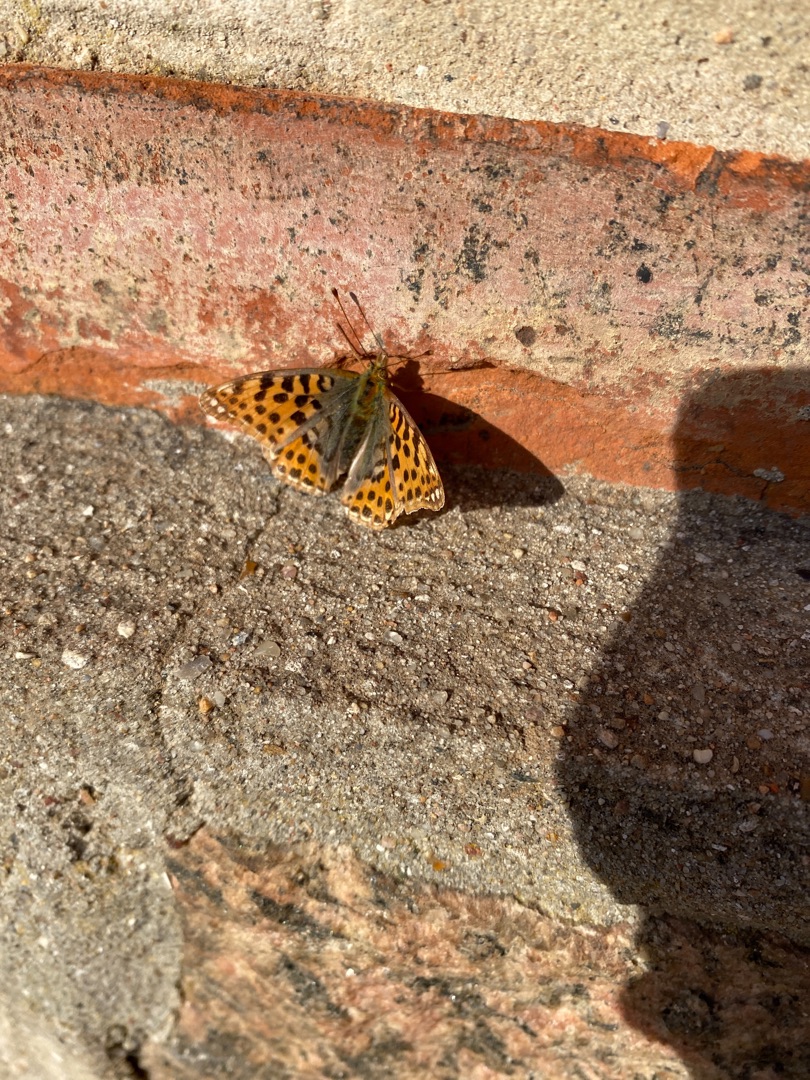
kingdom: Animalia
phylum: Arthropoda
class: Insecta
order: Lepidoptera
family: Nymphalidae
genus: Issoria
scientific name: Issoria lathonia
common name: Storplettet perlemorsommerfugl
